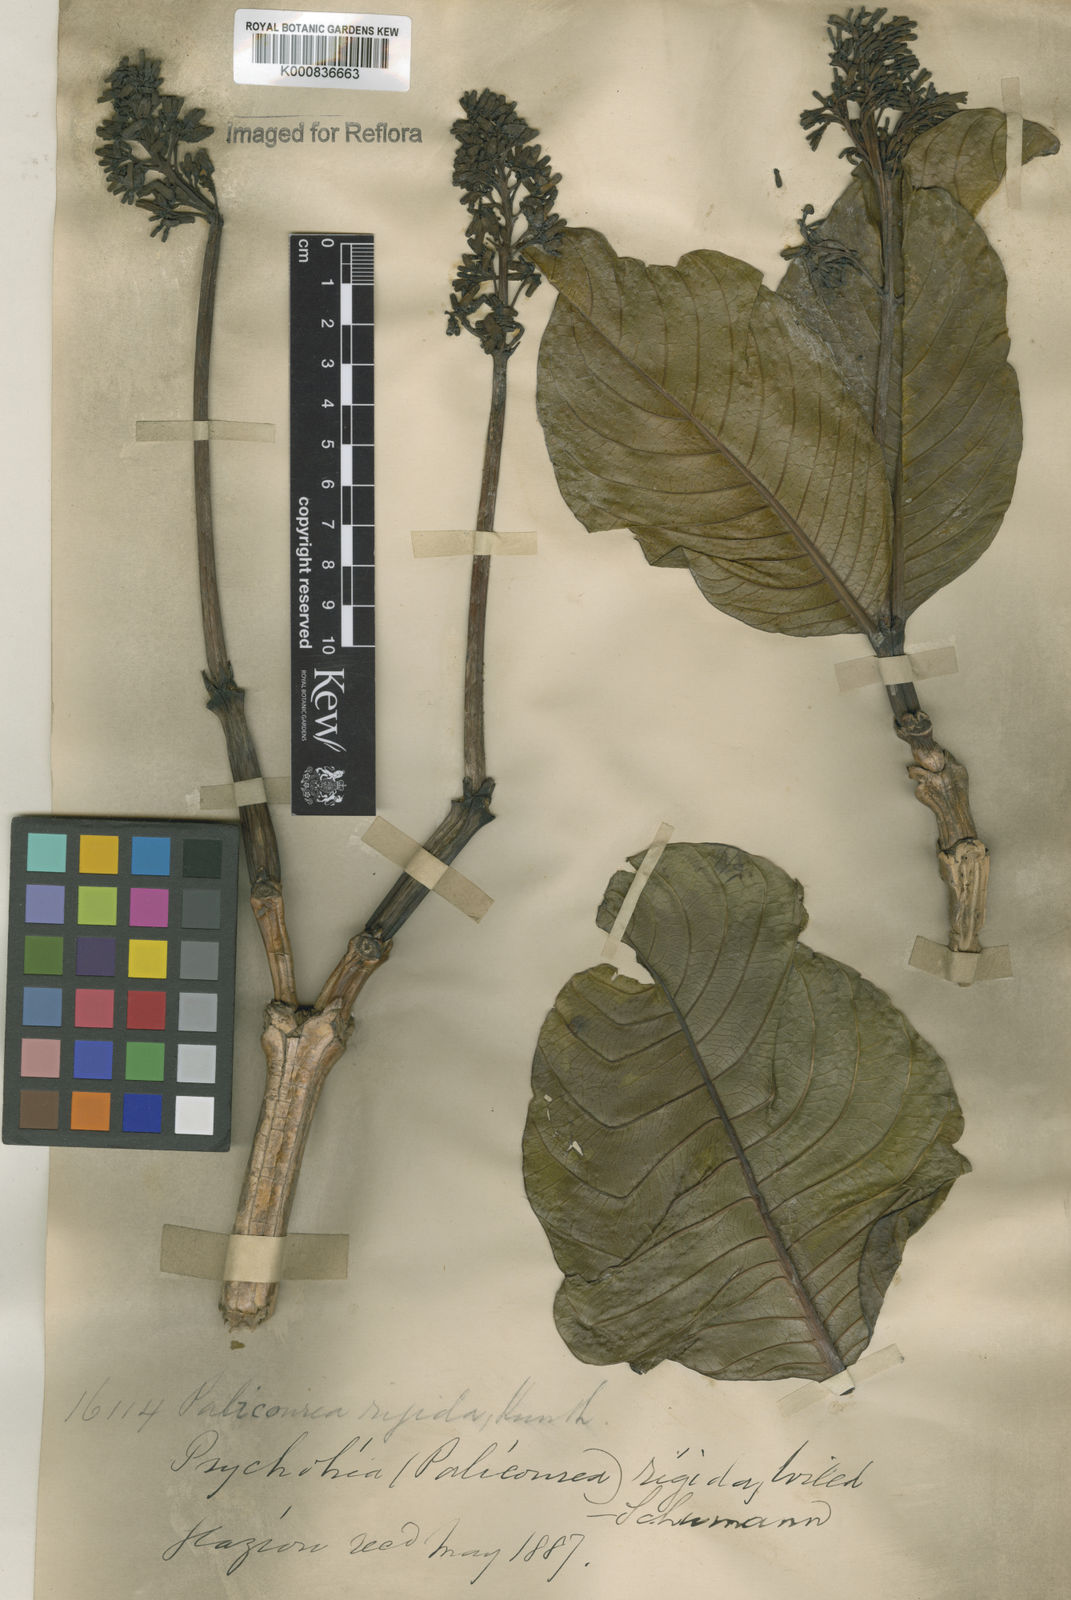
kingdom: Plantae
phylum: Tracheophyta
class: Magnoliopsida
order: Gentianales
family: Rubiaceae
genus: Palicourea
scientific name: Palicourea rigida
